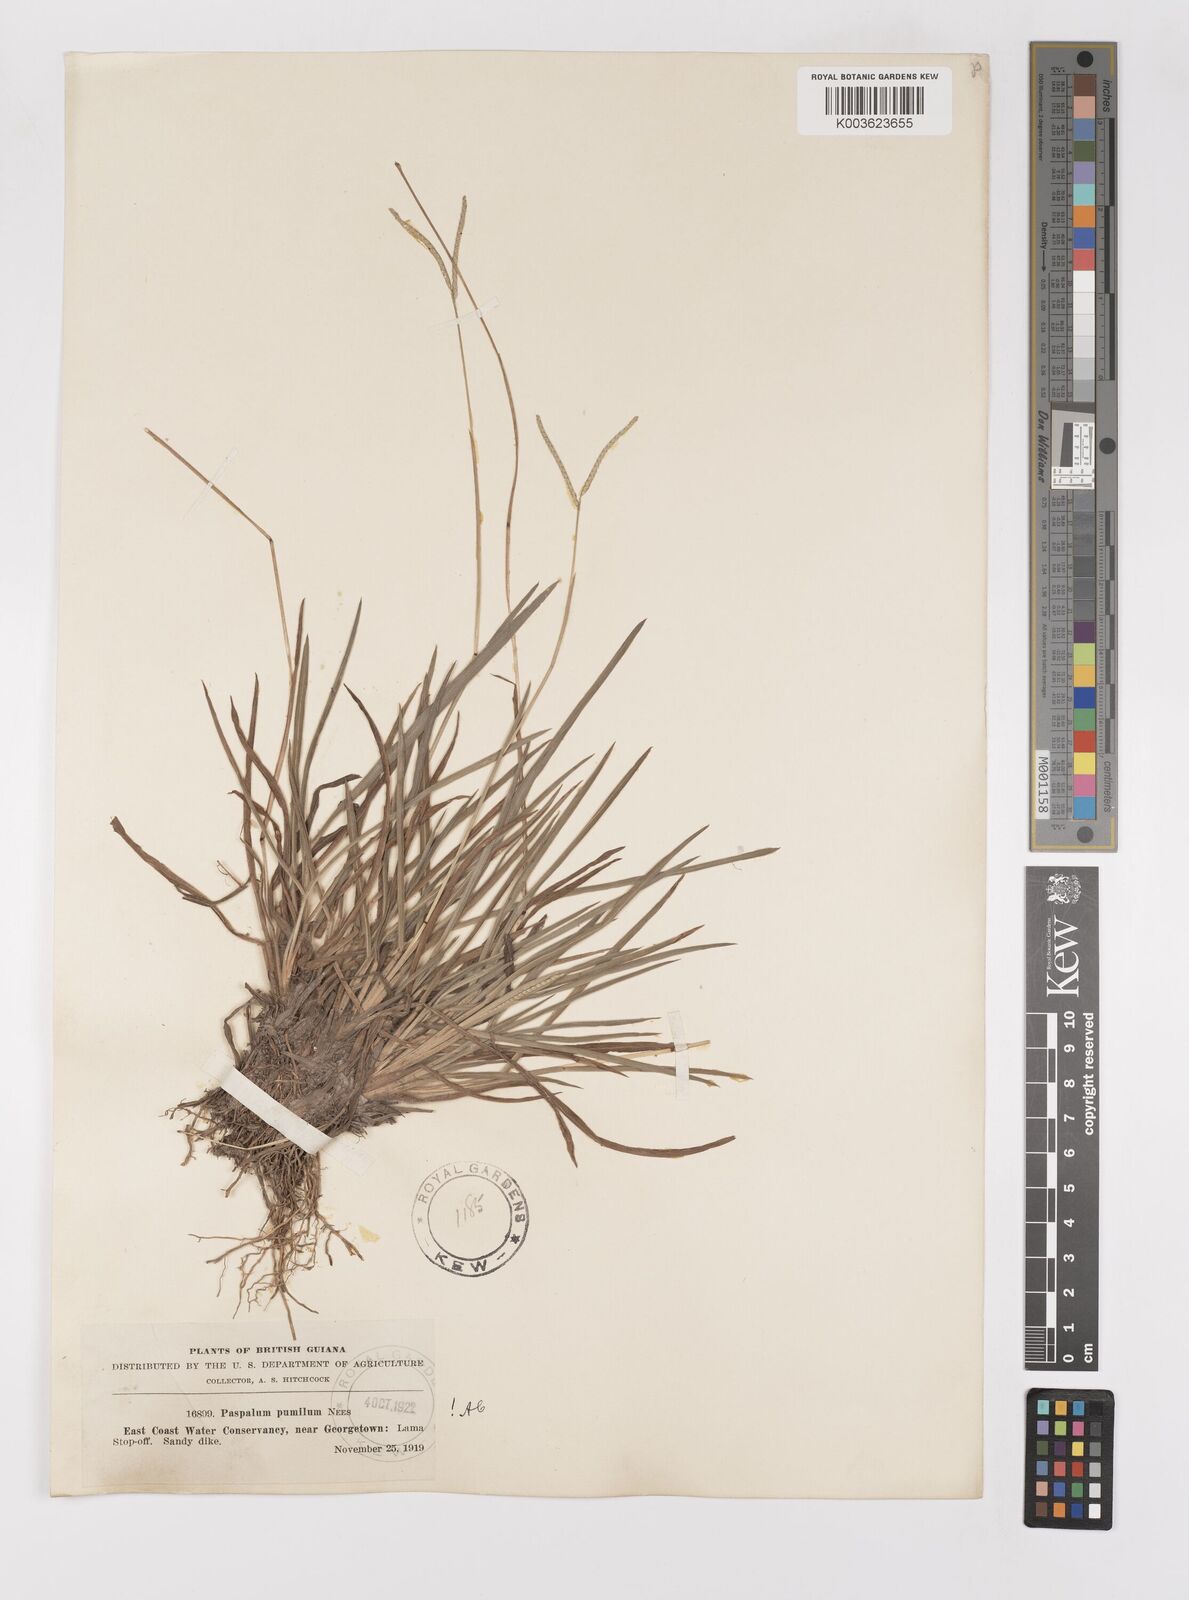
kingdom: Plantae
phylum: Tracheophyta
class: Liliopsida
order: Poales
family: Poaceae
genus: Paspalum
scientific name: Paspalum pumilum
